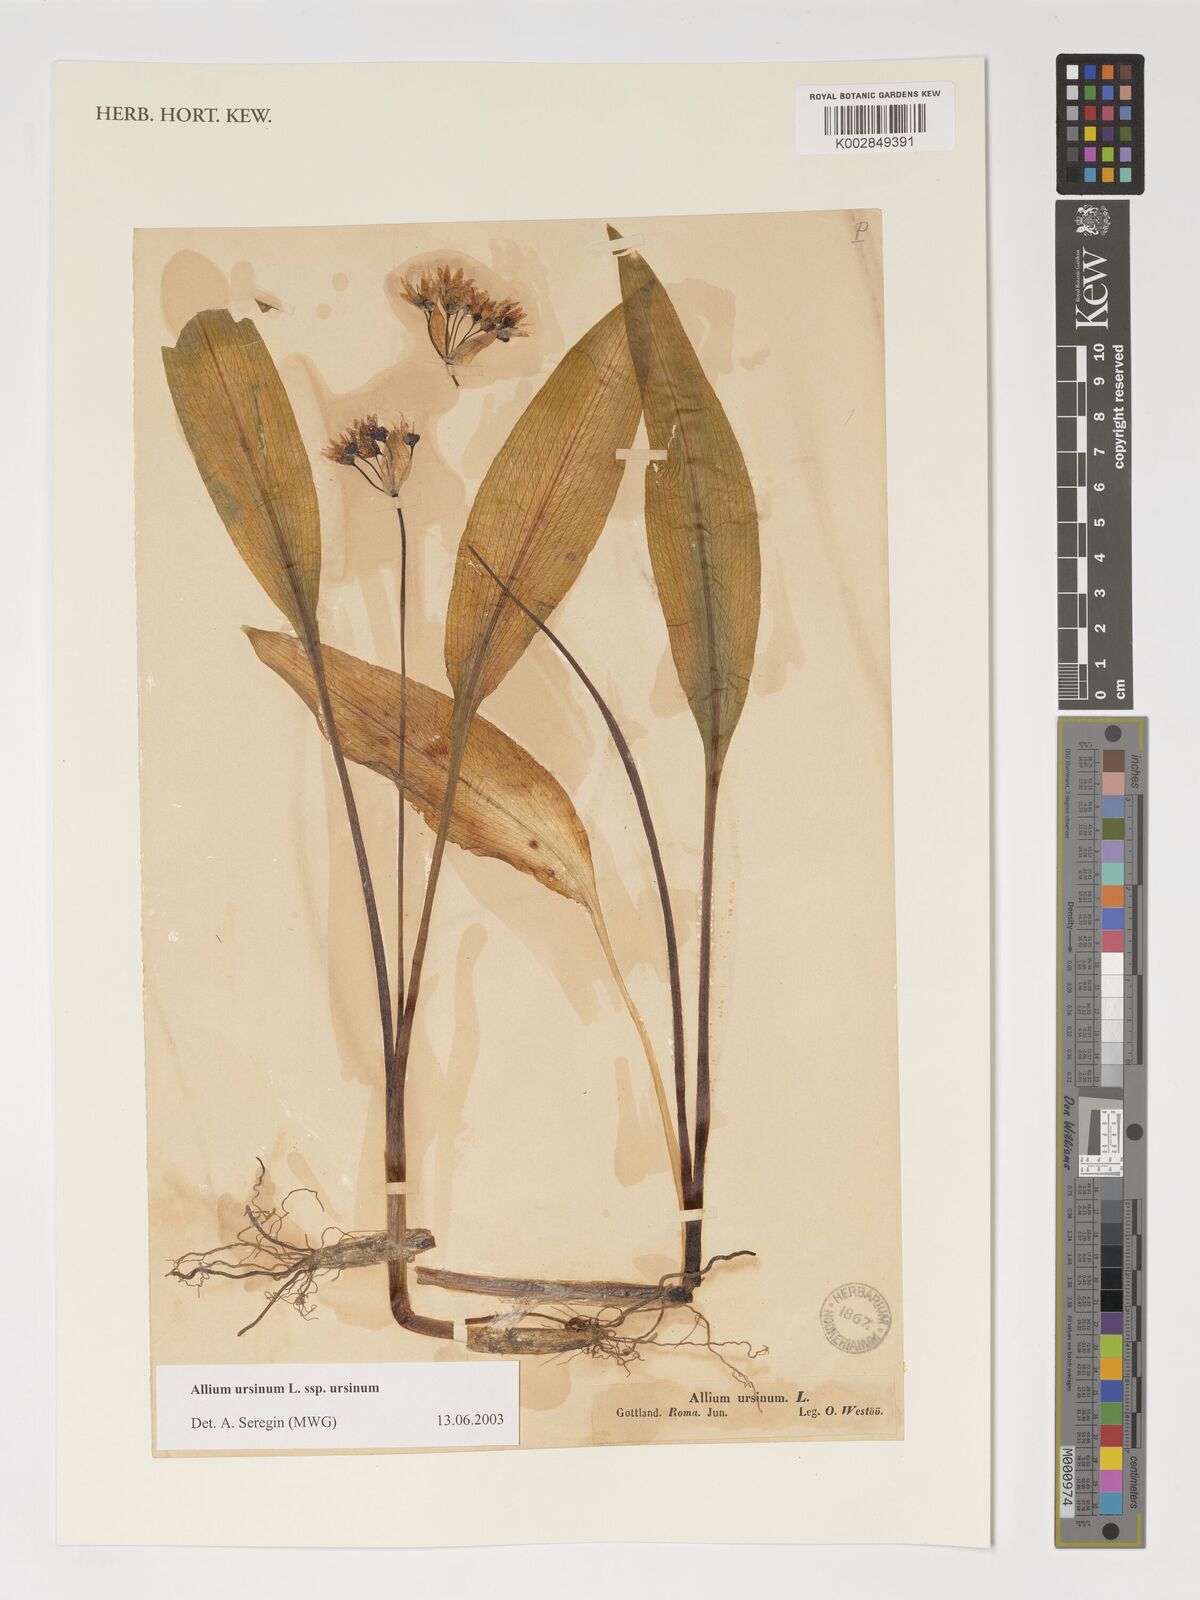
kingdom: Plantae
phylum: Tracheophyta
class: Liliopsida
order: Asparagales
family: Amaryllidaceae
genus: Allium
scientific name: Allium ursinum
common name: Ramsons
